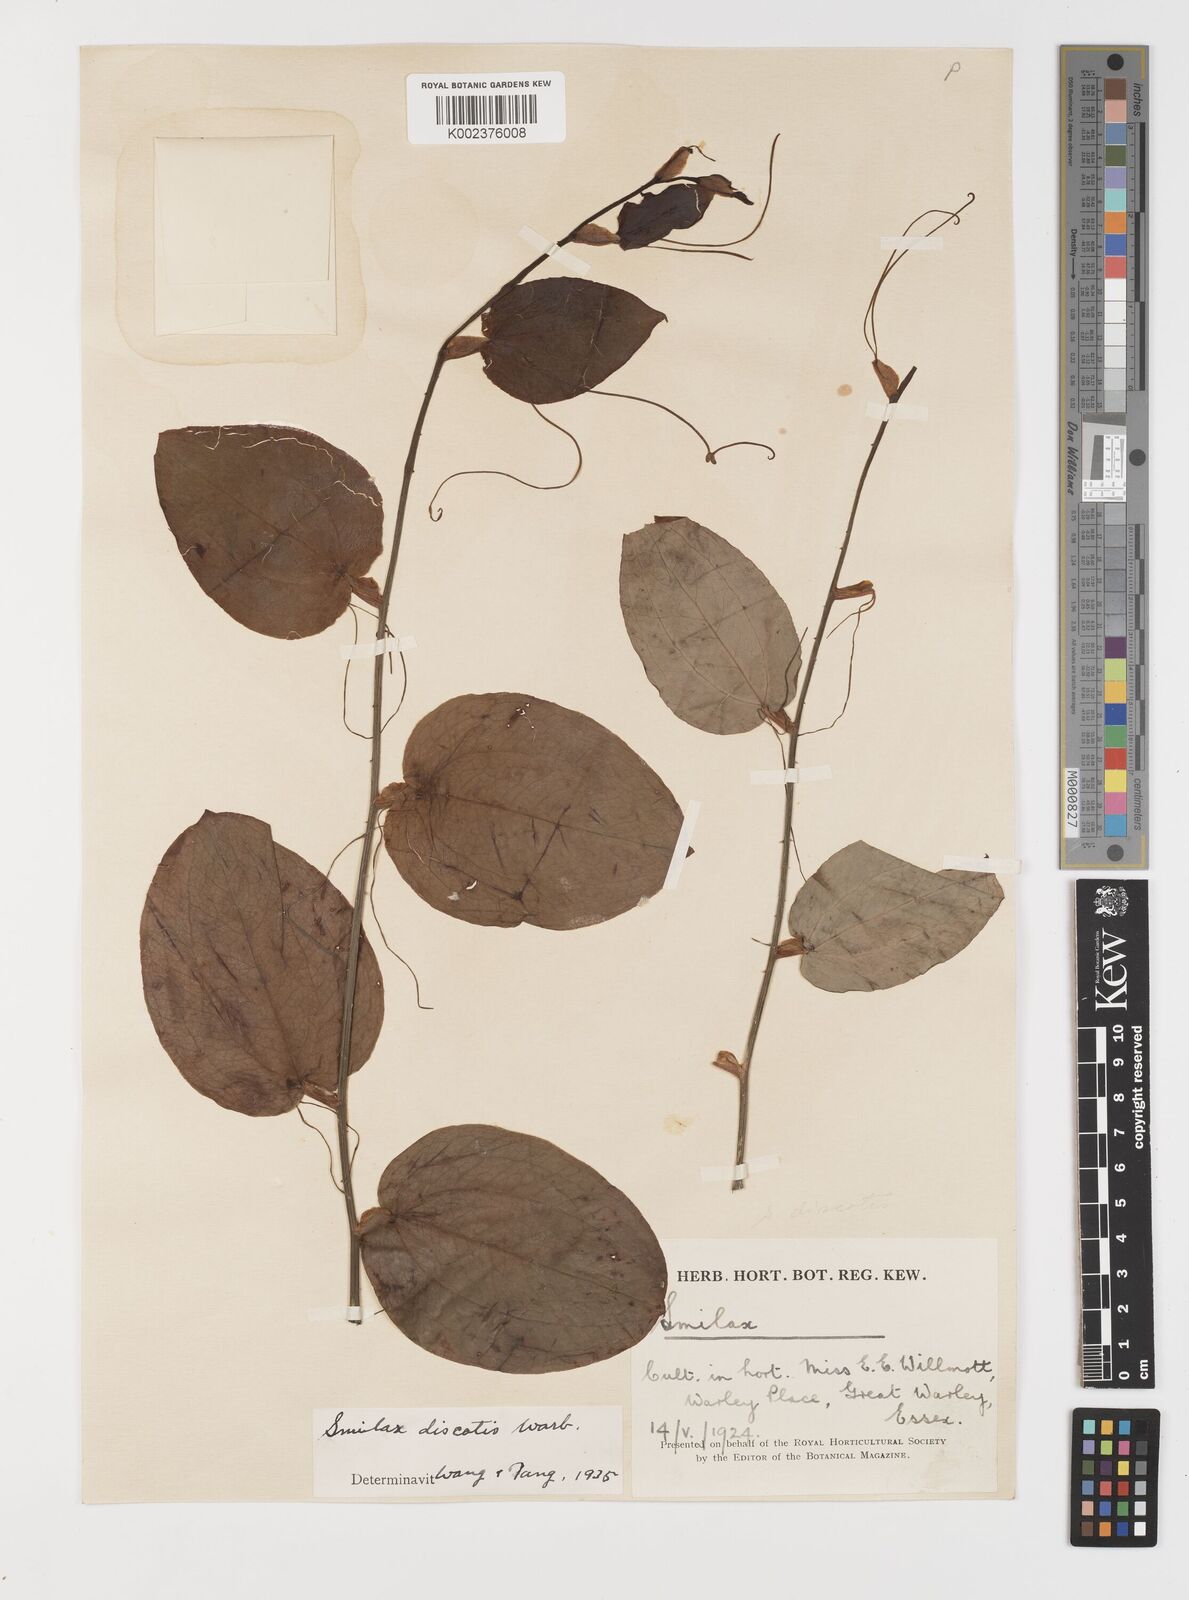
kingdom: Plantae
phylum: Tracheophyta
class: Liliopsida
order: Liliales
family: Smilacaceae
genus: Smilax
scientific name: Smilax discotis
